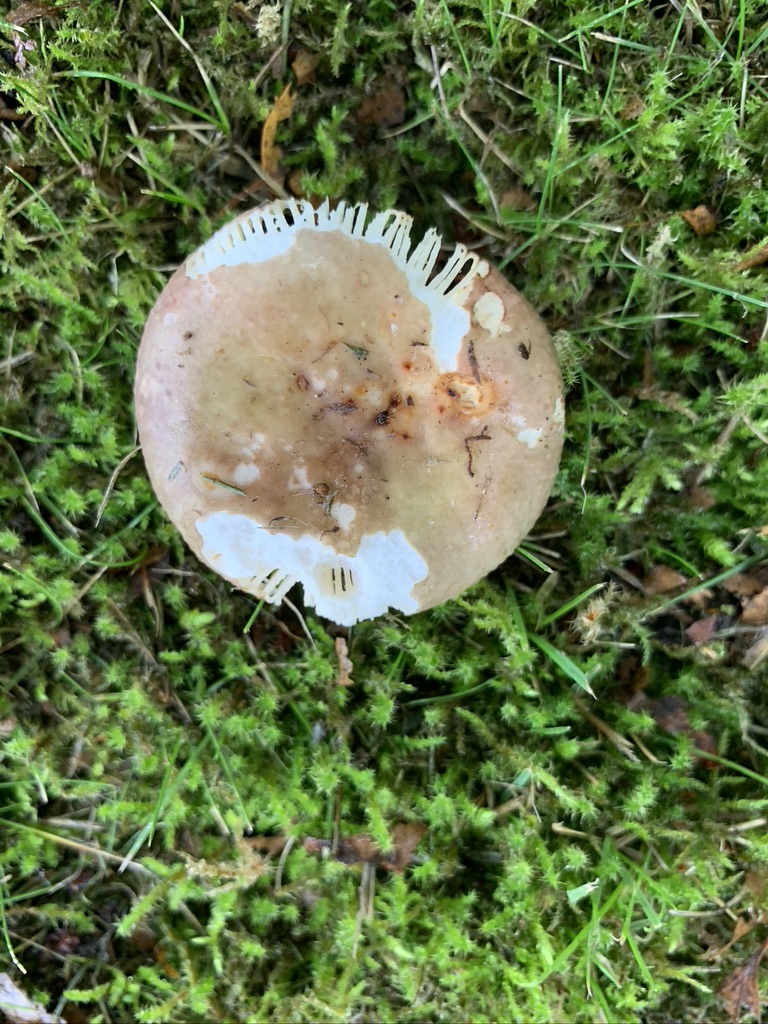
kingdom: Fungi
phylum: Basidiomycota
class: Agaricomycetes
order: Russulales
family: Russulaceae
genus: Russula
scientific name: Russula versicolor
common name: foranderlig skørhat
